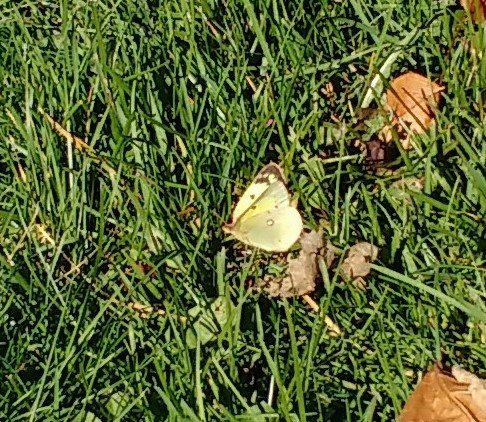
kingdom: Animalia
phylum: Arthropoda
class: Insecta
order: Lepidoptera
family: Pieridae
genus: Colias
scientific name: Colias philodice
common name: Clouded Sulphur
